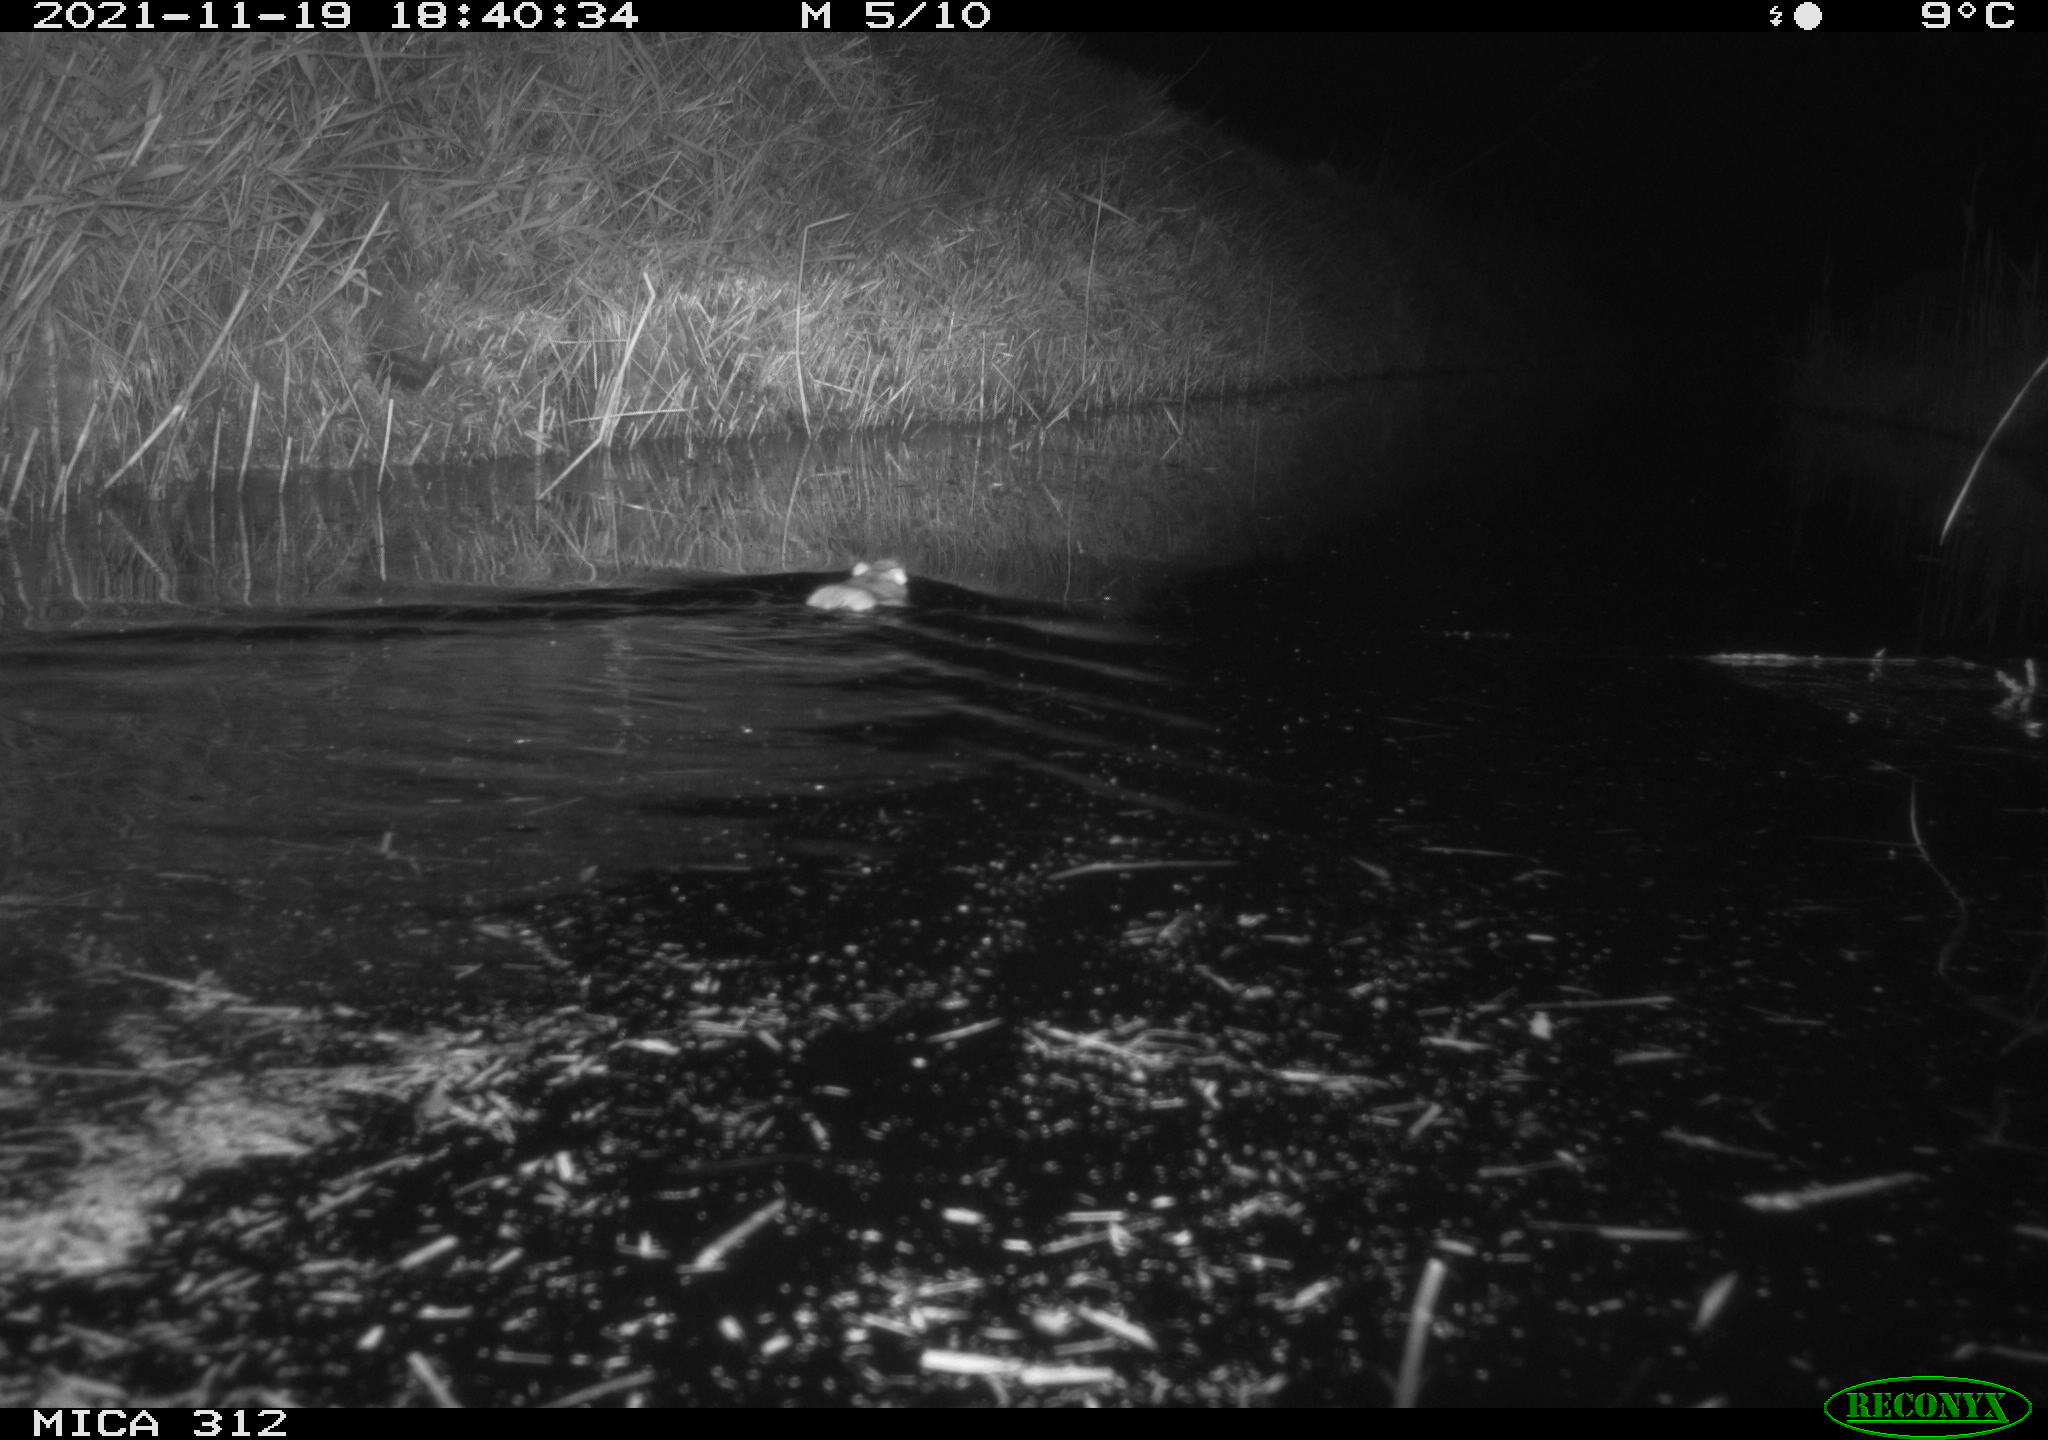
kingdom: Animalia
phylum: Chordata
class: Mammalia
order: Rodentia
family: Muridae
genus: Rattus
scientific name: Rattus norvegicus
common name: Brown rat
